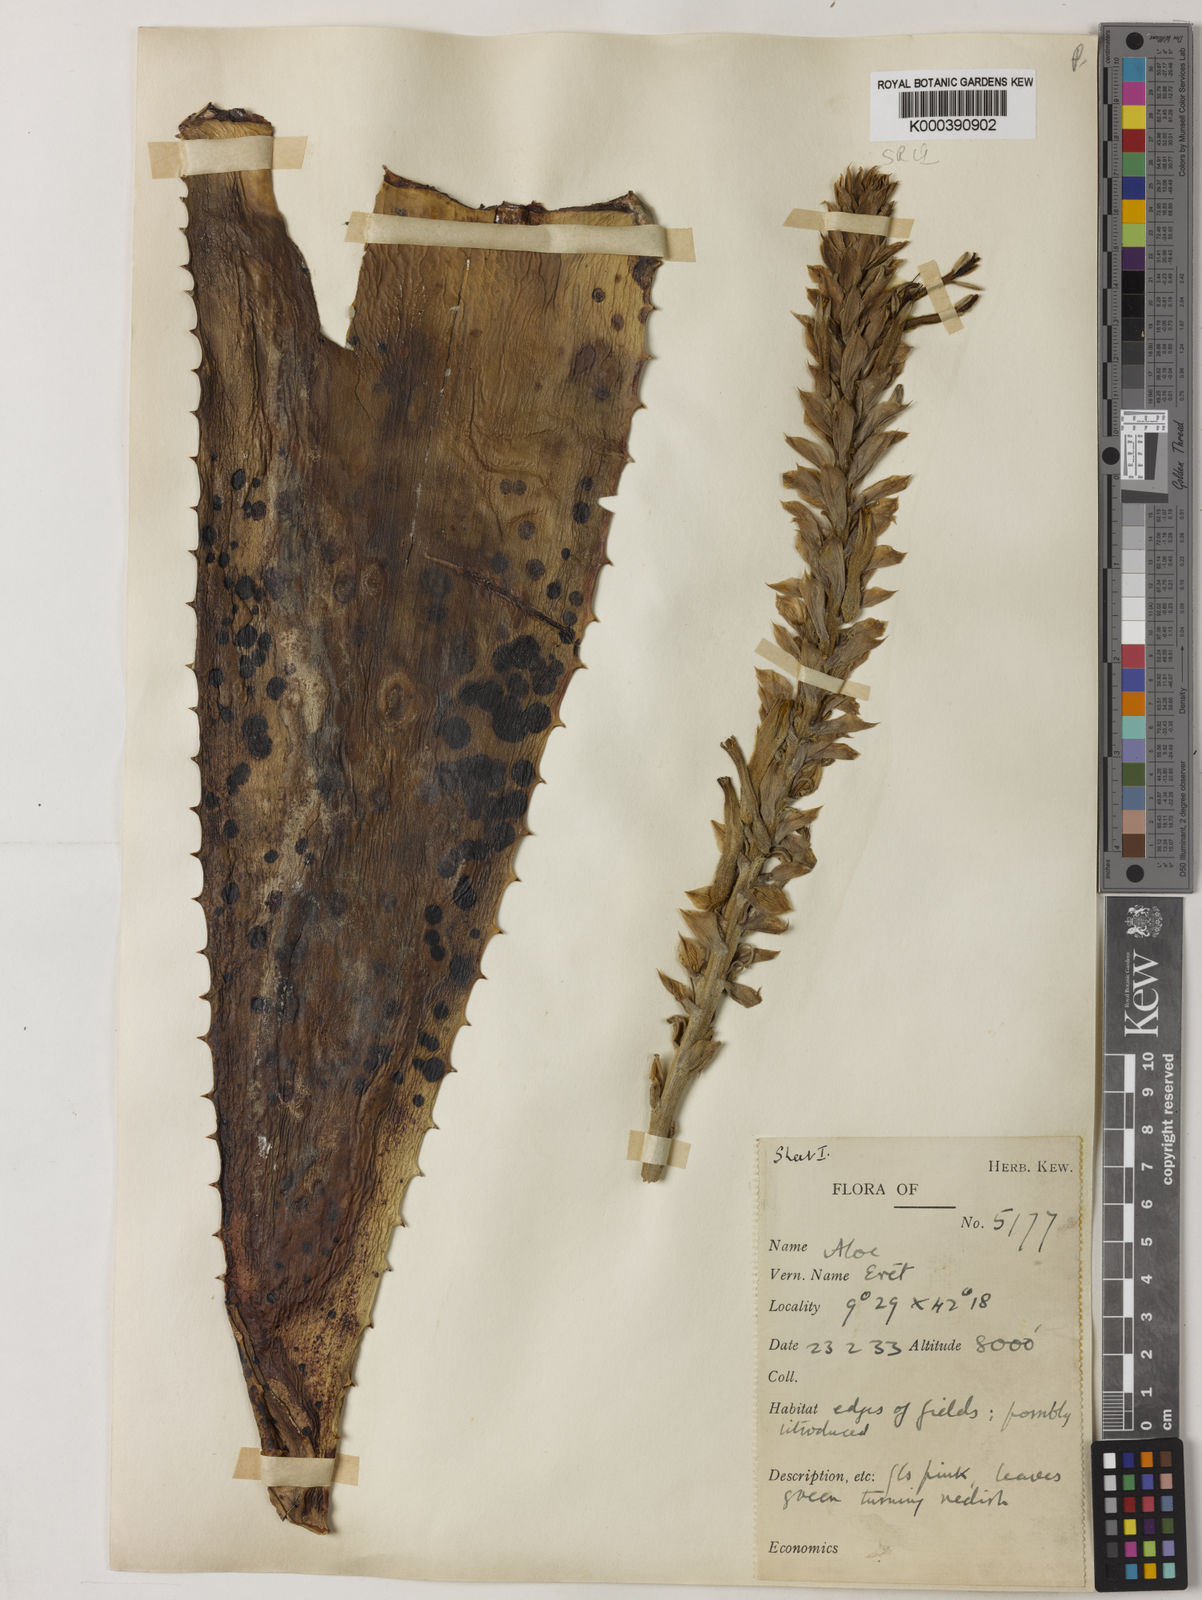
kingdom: Plantae
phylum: Tracheophyta
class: Liliopsida
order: Asparagales
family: Asphodelaceae
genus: Aloe
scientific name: Aloe pubescens
